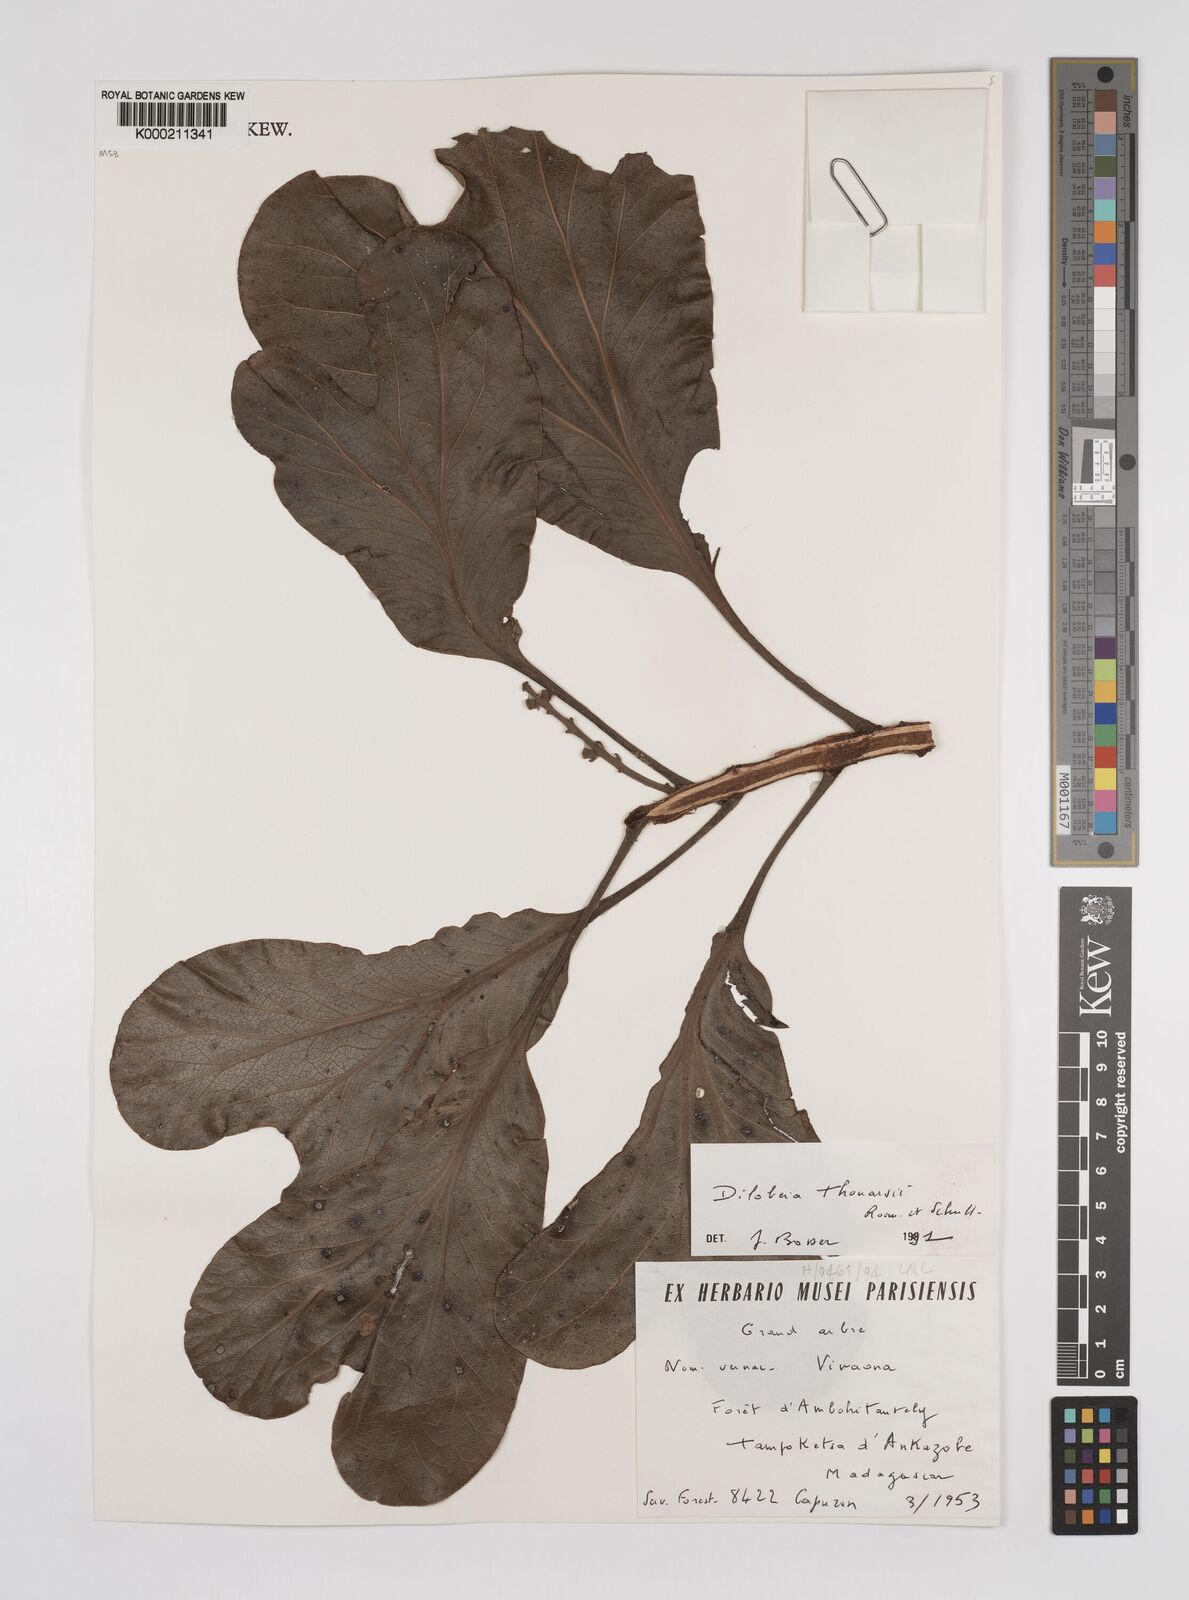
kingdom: Plantae
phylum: Tracheophyta
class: Magnoliopsida
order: Proteales
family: Proteaceae
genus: Dilobeia
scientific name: Dilobeia thouarsii
